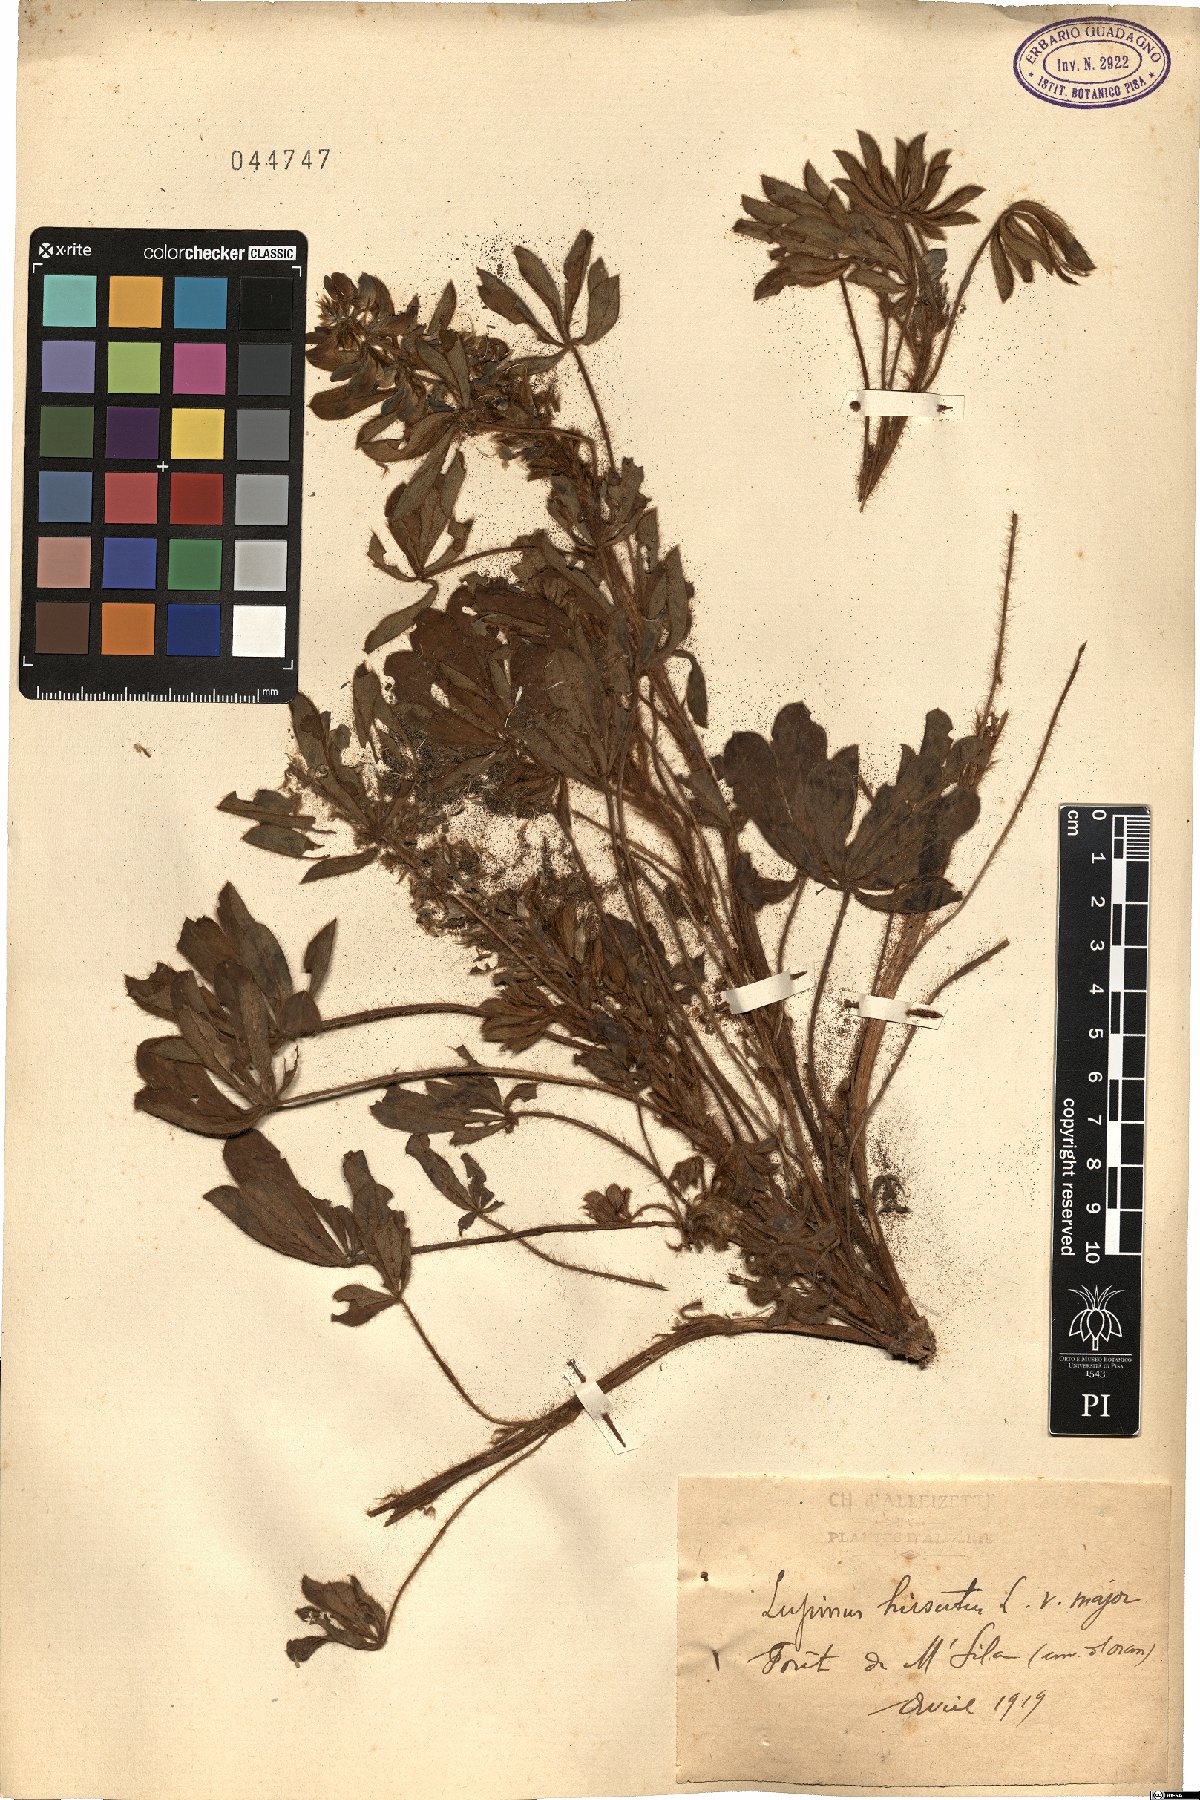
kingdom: Plantae
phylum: Tracheophyta
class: Magnoliopsida
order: Fabales
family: Fabaceae
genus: Lupinus
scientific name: Lupinus pilosus
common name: Blue lupine
